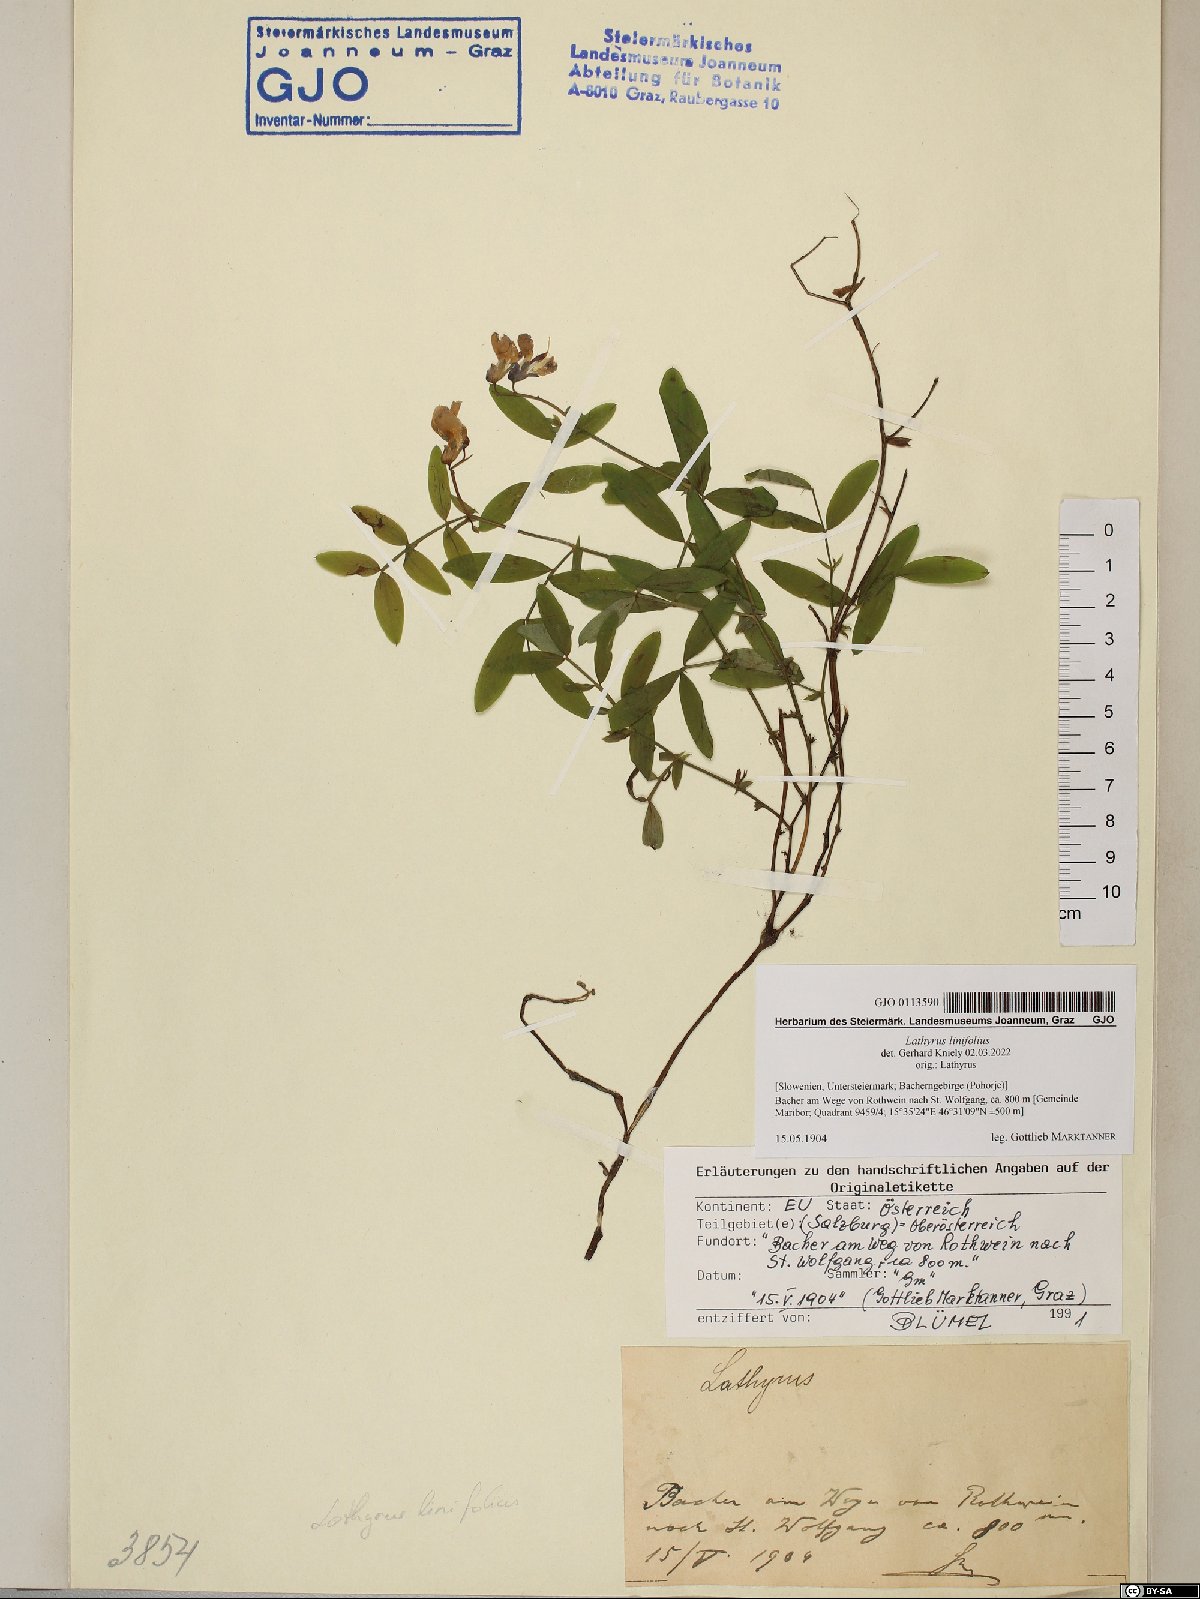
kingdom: Plantae
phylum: Tracheophyta
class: Magnoliopsida
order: Fabales
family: Fabaceae
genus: Lathyrus
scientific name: Lathyrus linifolius
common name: Bitter-vetch
